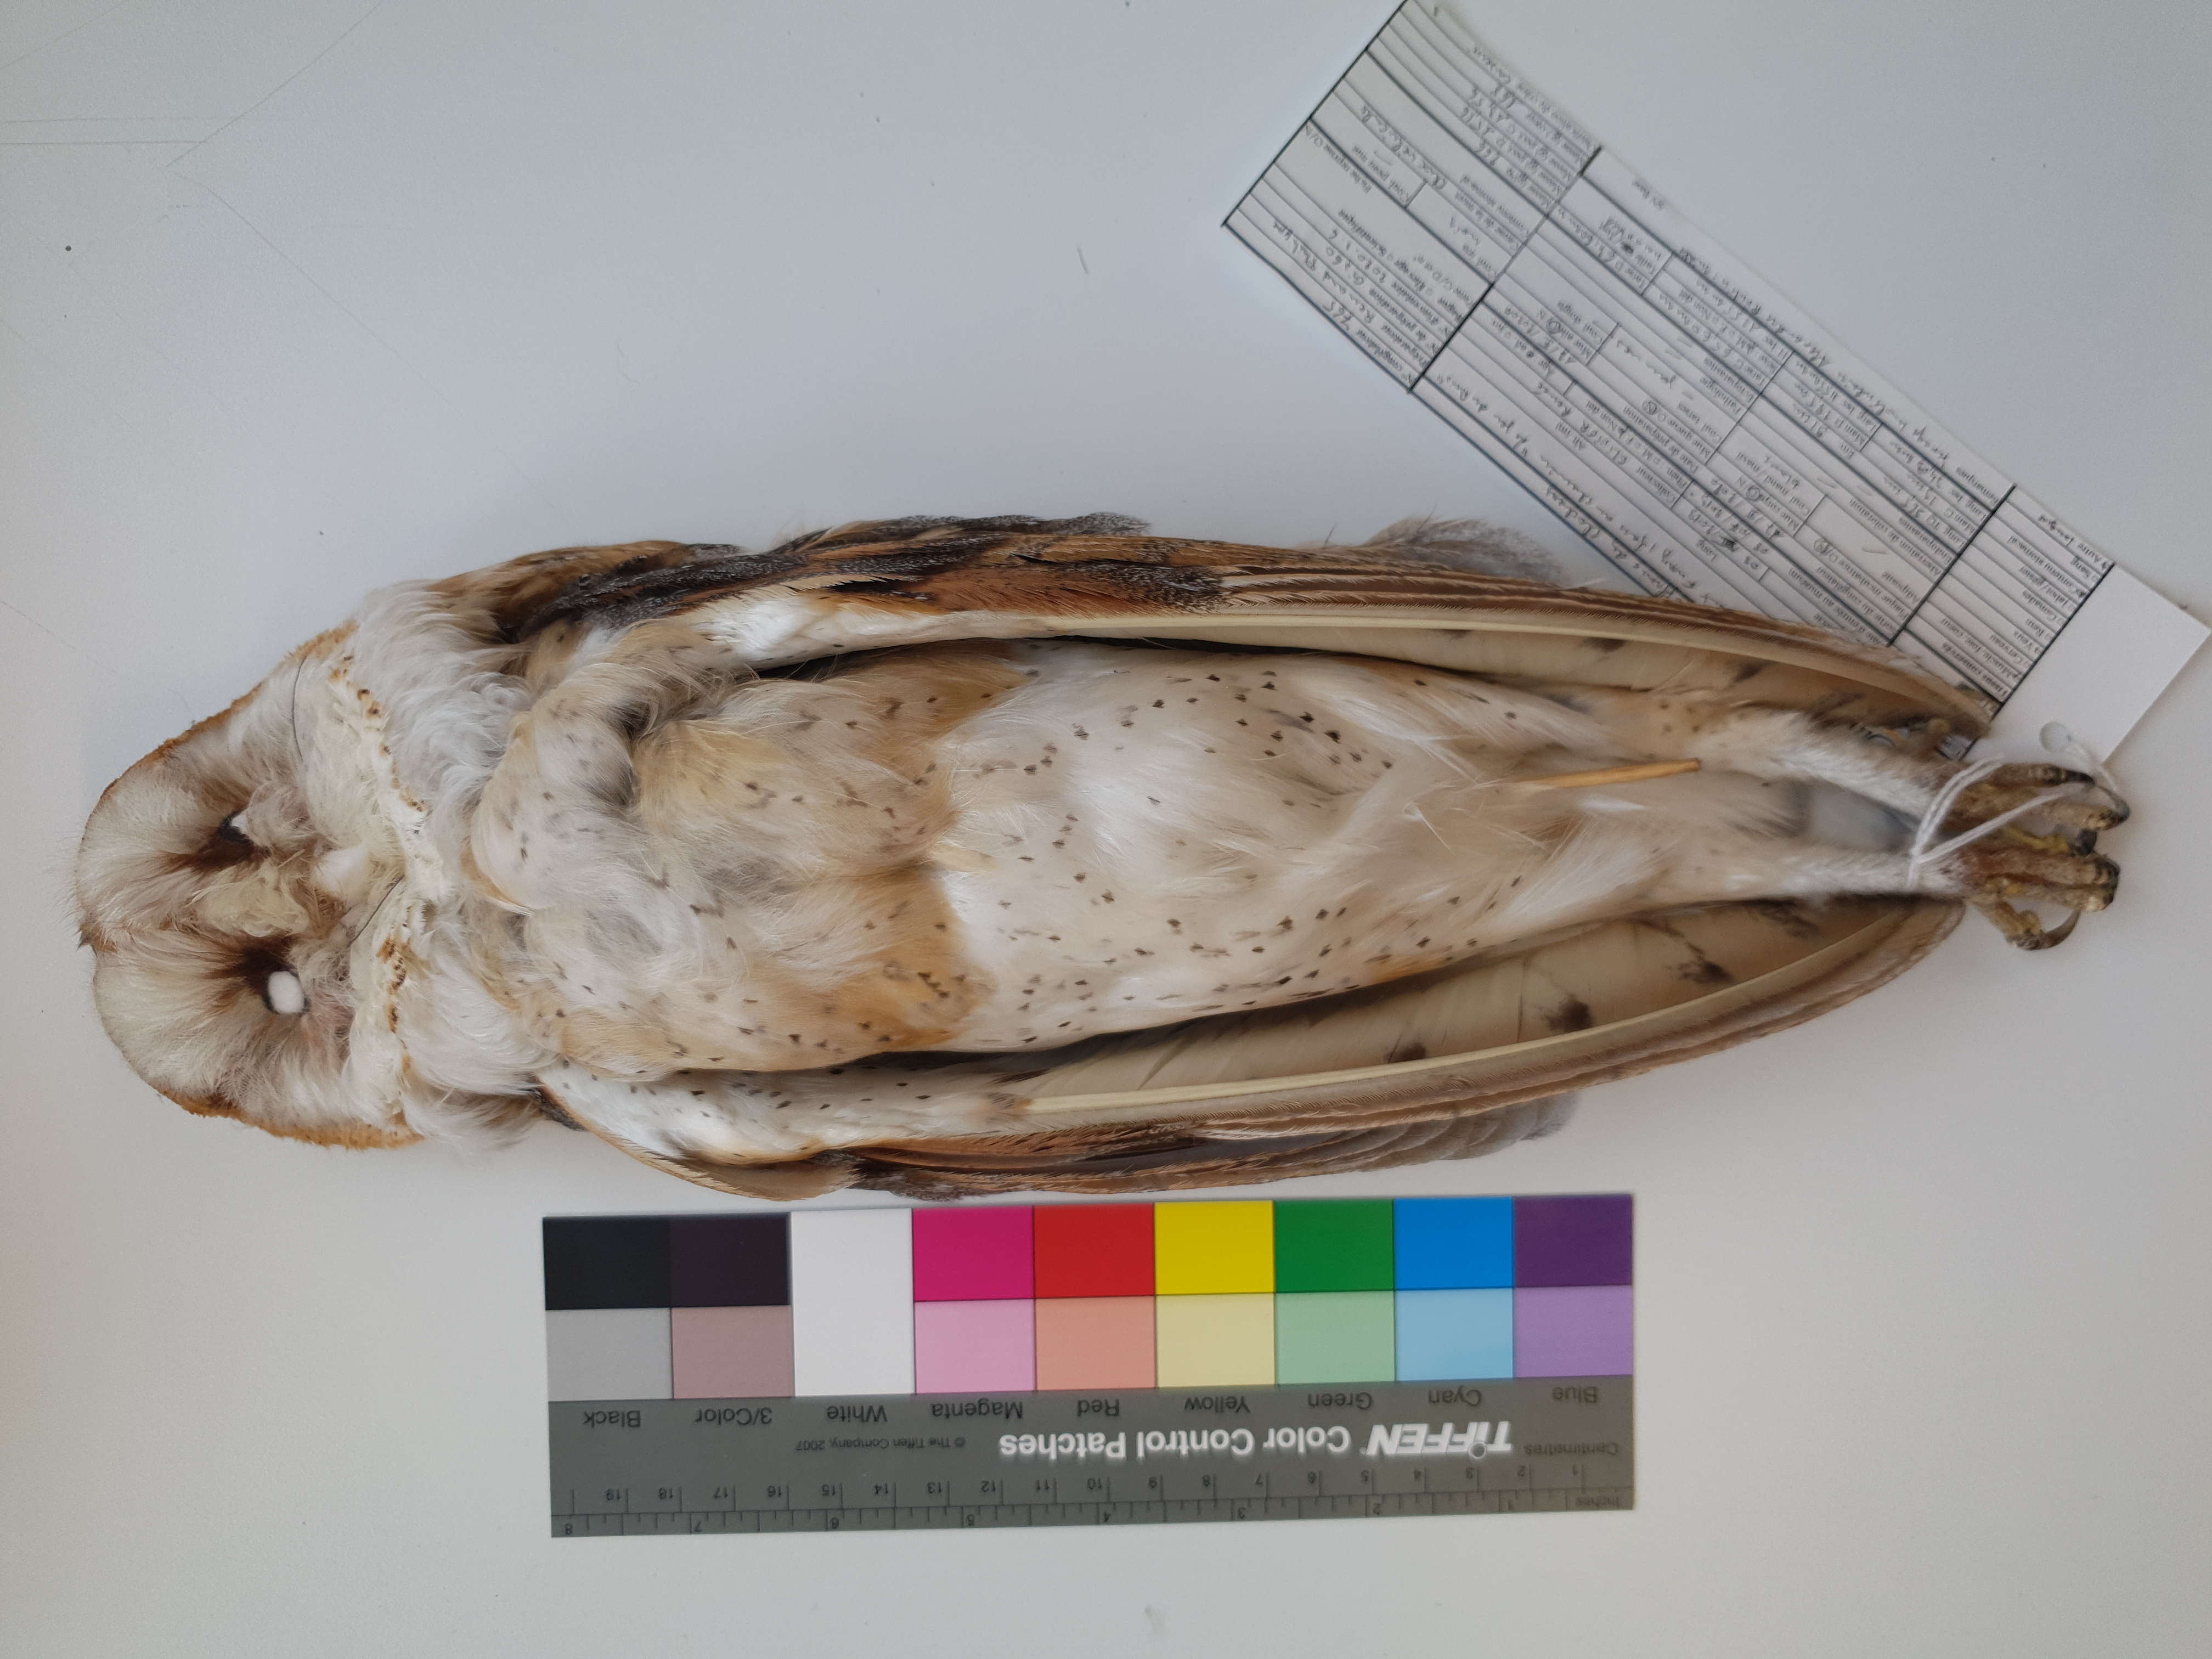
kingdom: Animalia
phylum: Chordata
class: Aves
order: Strigiformes
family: Tytonidae
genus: Tyto
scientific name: Tyto alba
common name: Barn owl
